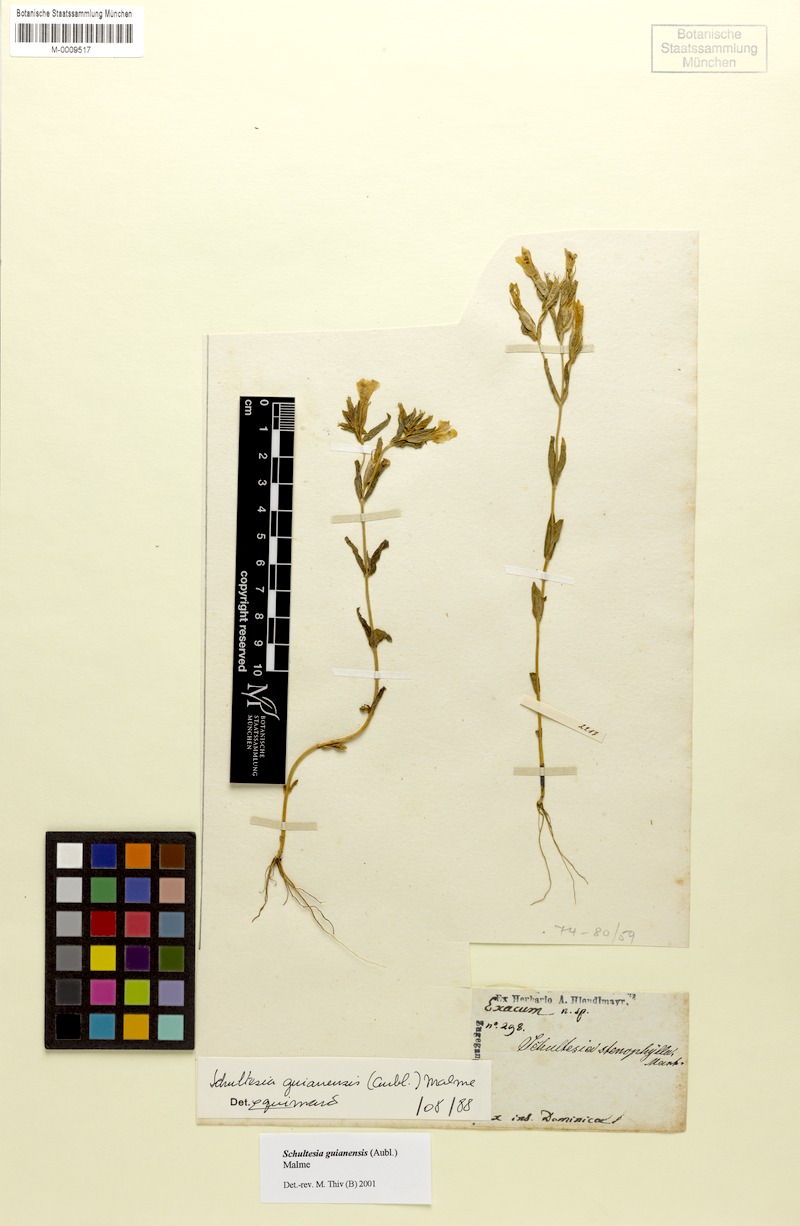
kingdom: Plantae
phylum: Tracheophyta
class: Magnoliopsida
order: Gentianales
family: Gentianaceae
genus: Schultesia
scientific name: Schultesia guianensis
